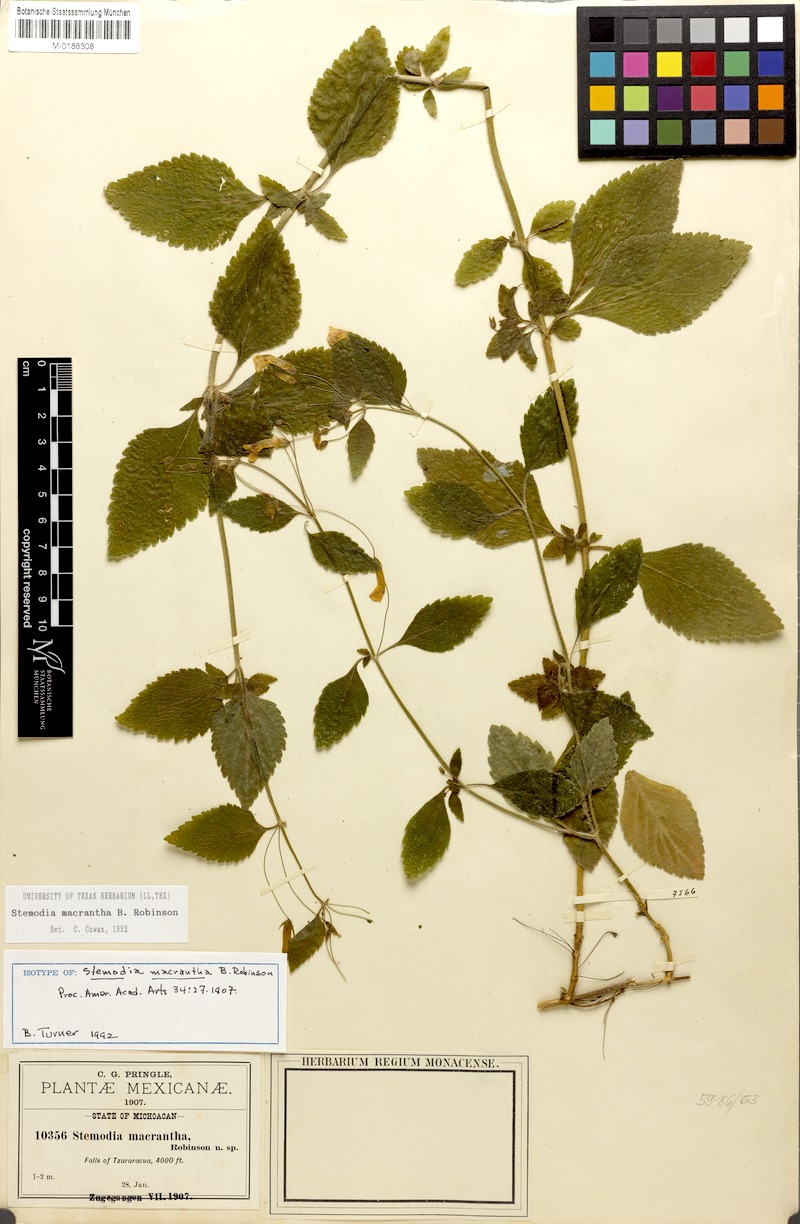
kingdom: Plantae
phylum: Tracheophyta
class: Magnoliopsida
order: Lamiales
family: Plantaginaceae
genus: Stemodia
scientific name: Stemodia macrantha
